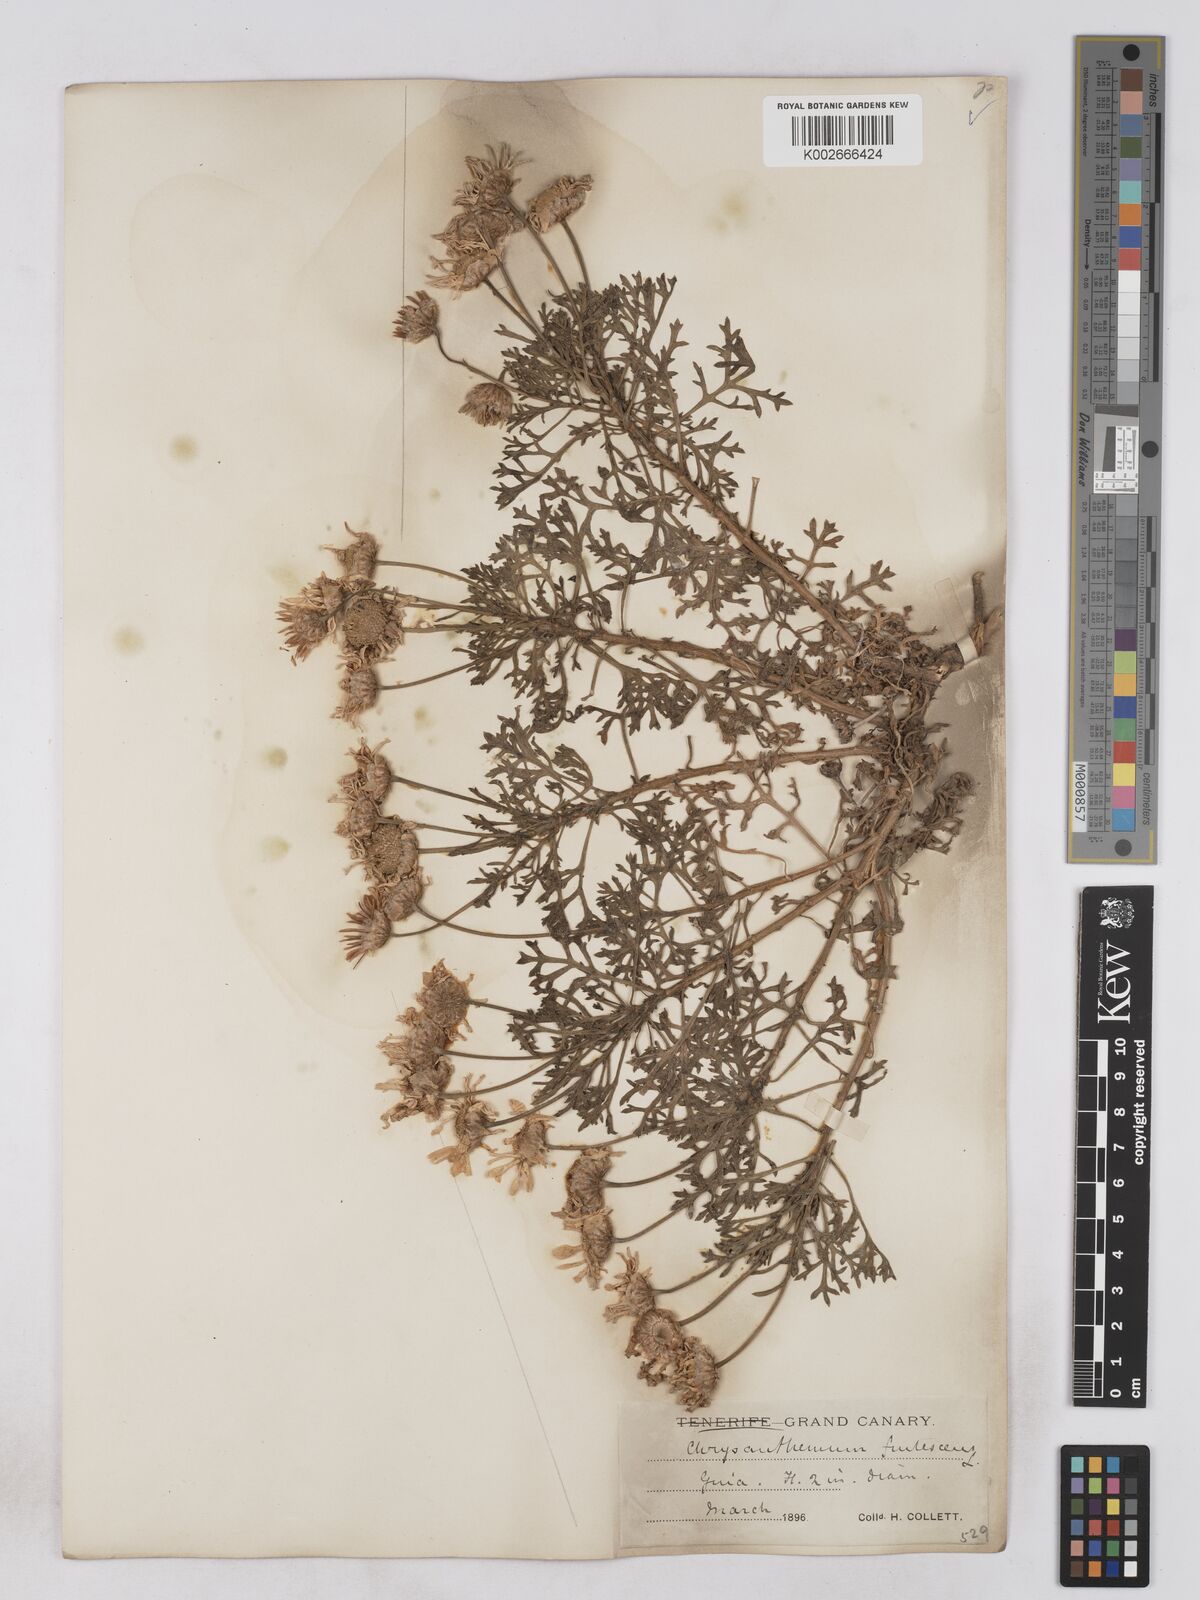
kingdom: Plantae
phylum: Tracheophyta
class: Magnoliopsida
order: Asterales
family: Asteraceae
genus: Argyranthemum
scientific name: Argyranthemum frutescens
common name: Paris daisy
